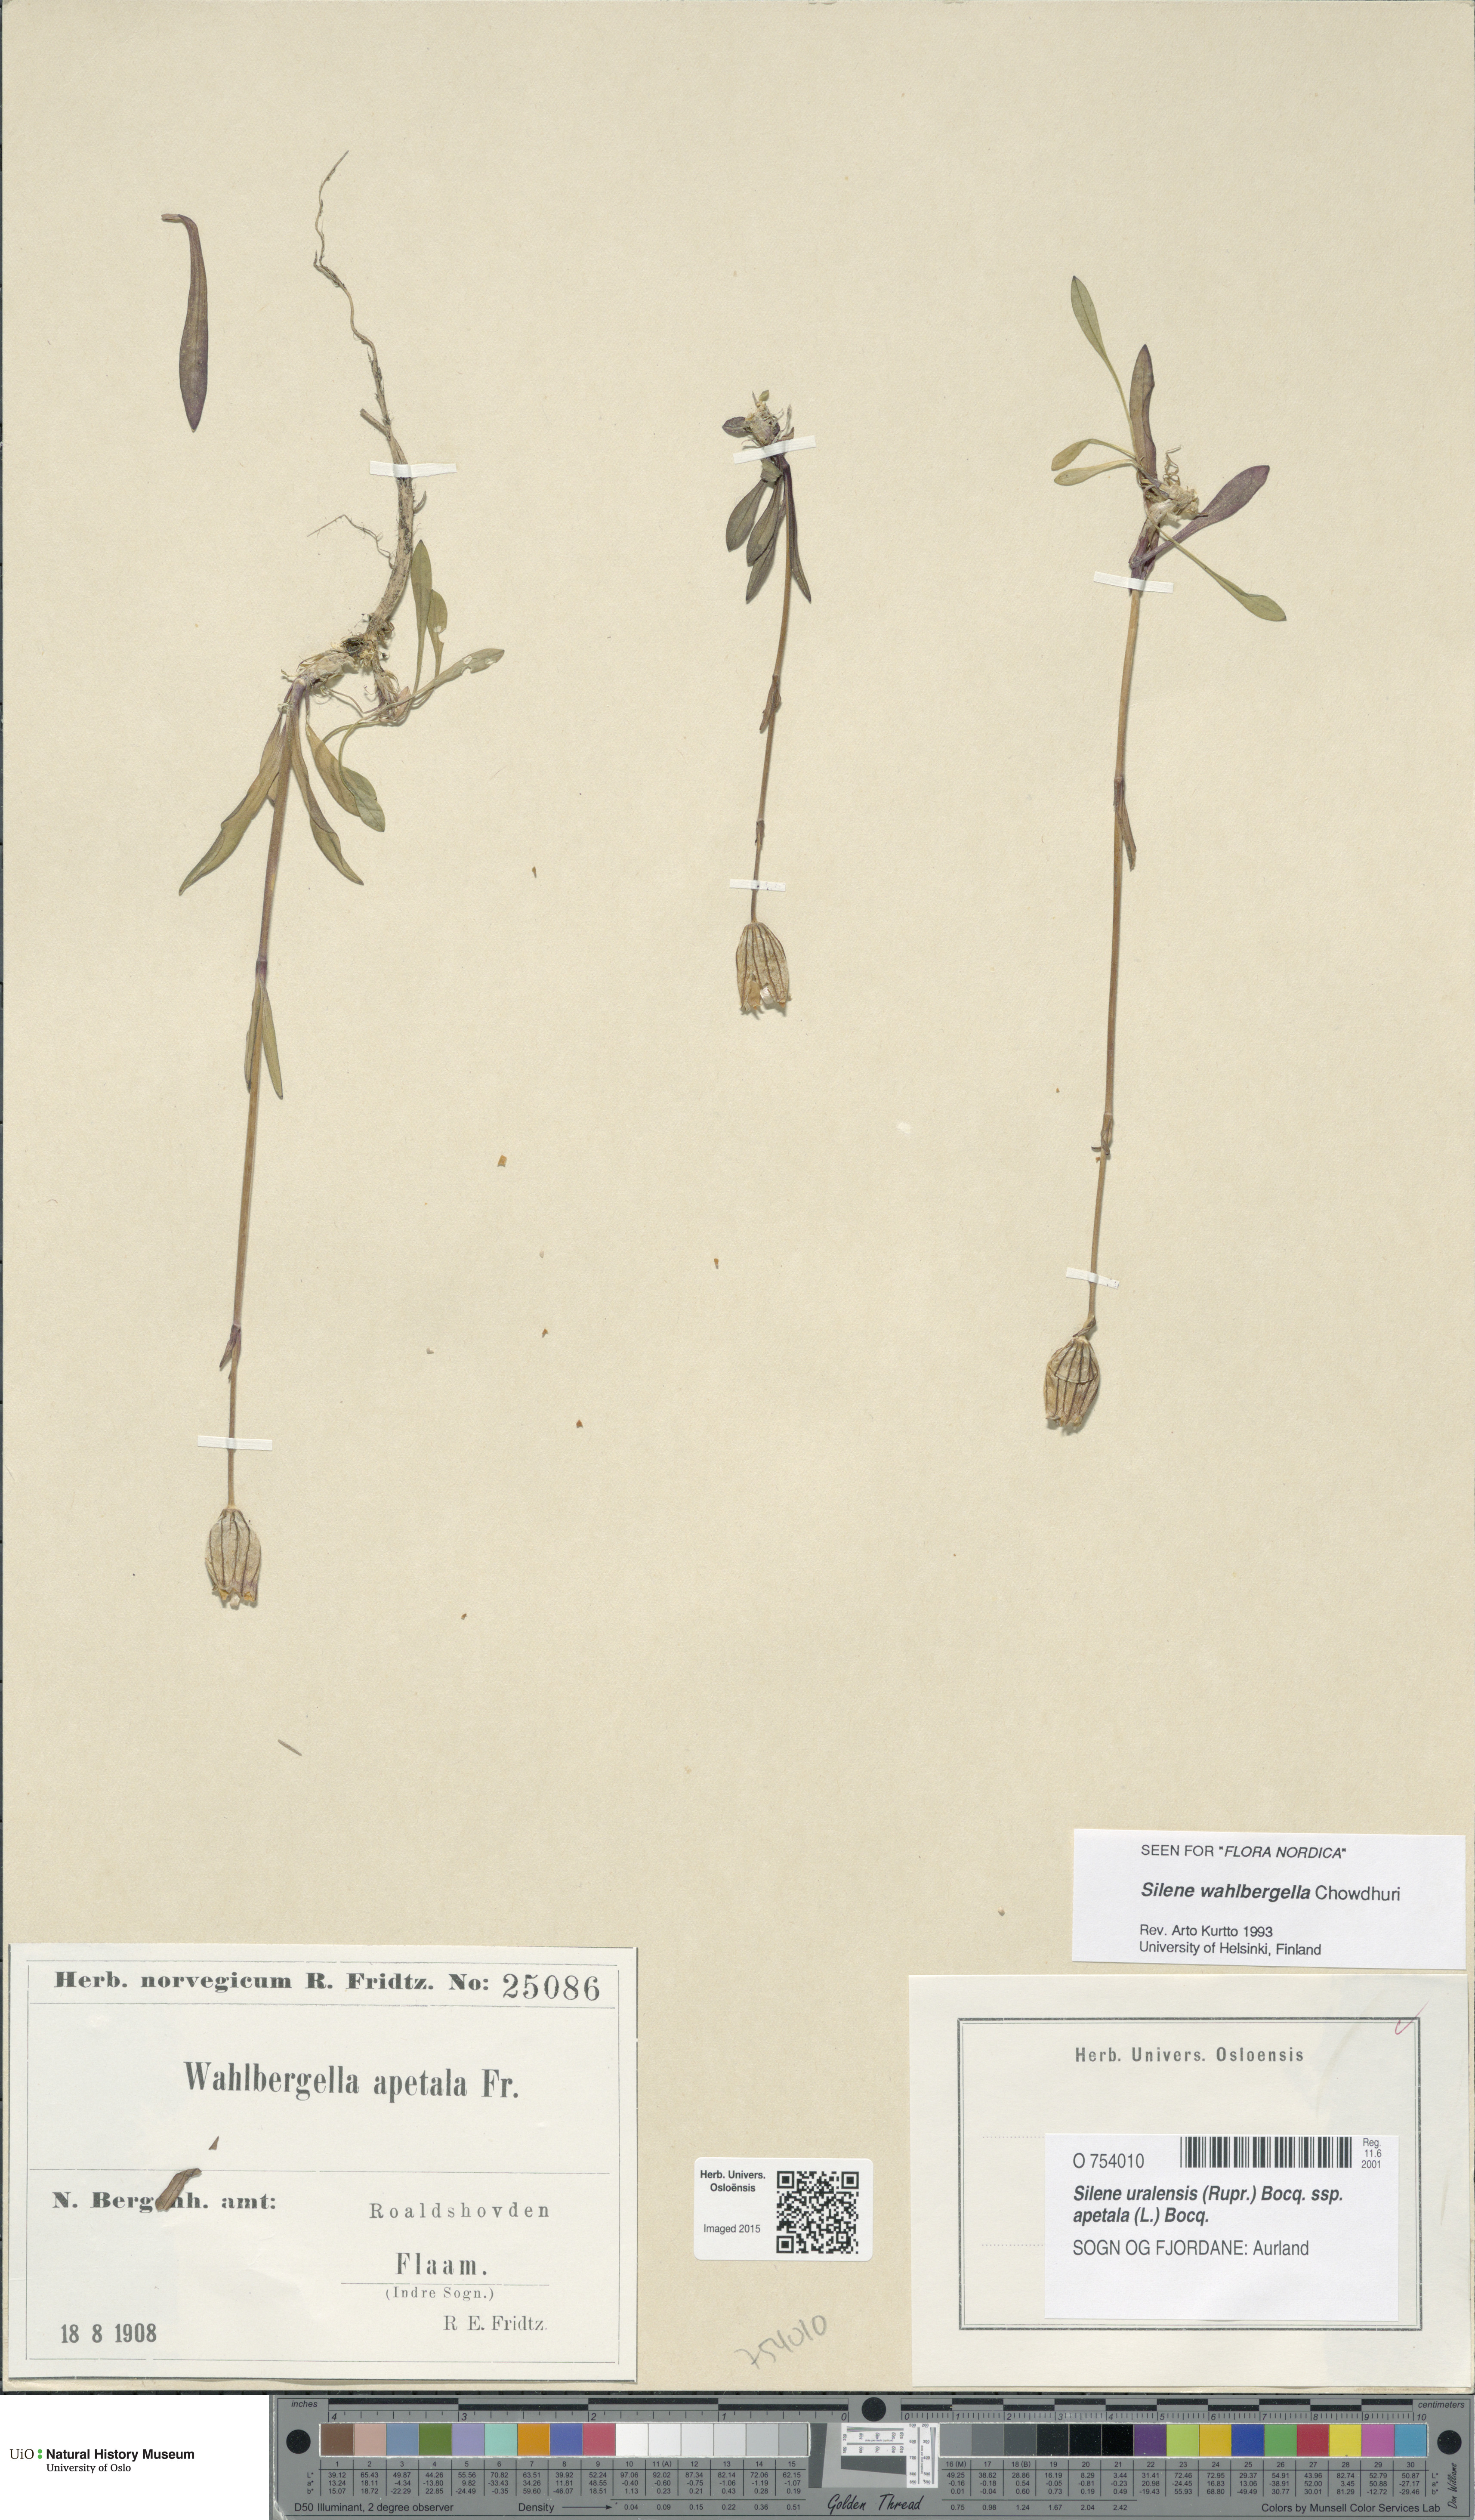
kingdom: Plantae
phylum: Tracheophyta
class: Magnoliopsida
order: Caryophyllales
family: Caryophyllaceae
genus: Silene
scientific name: Silene wahlbergella
